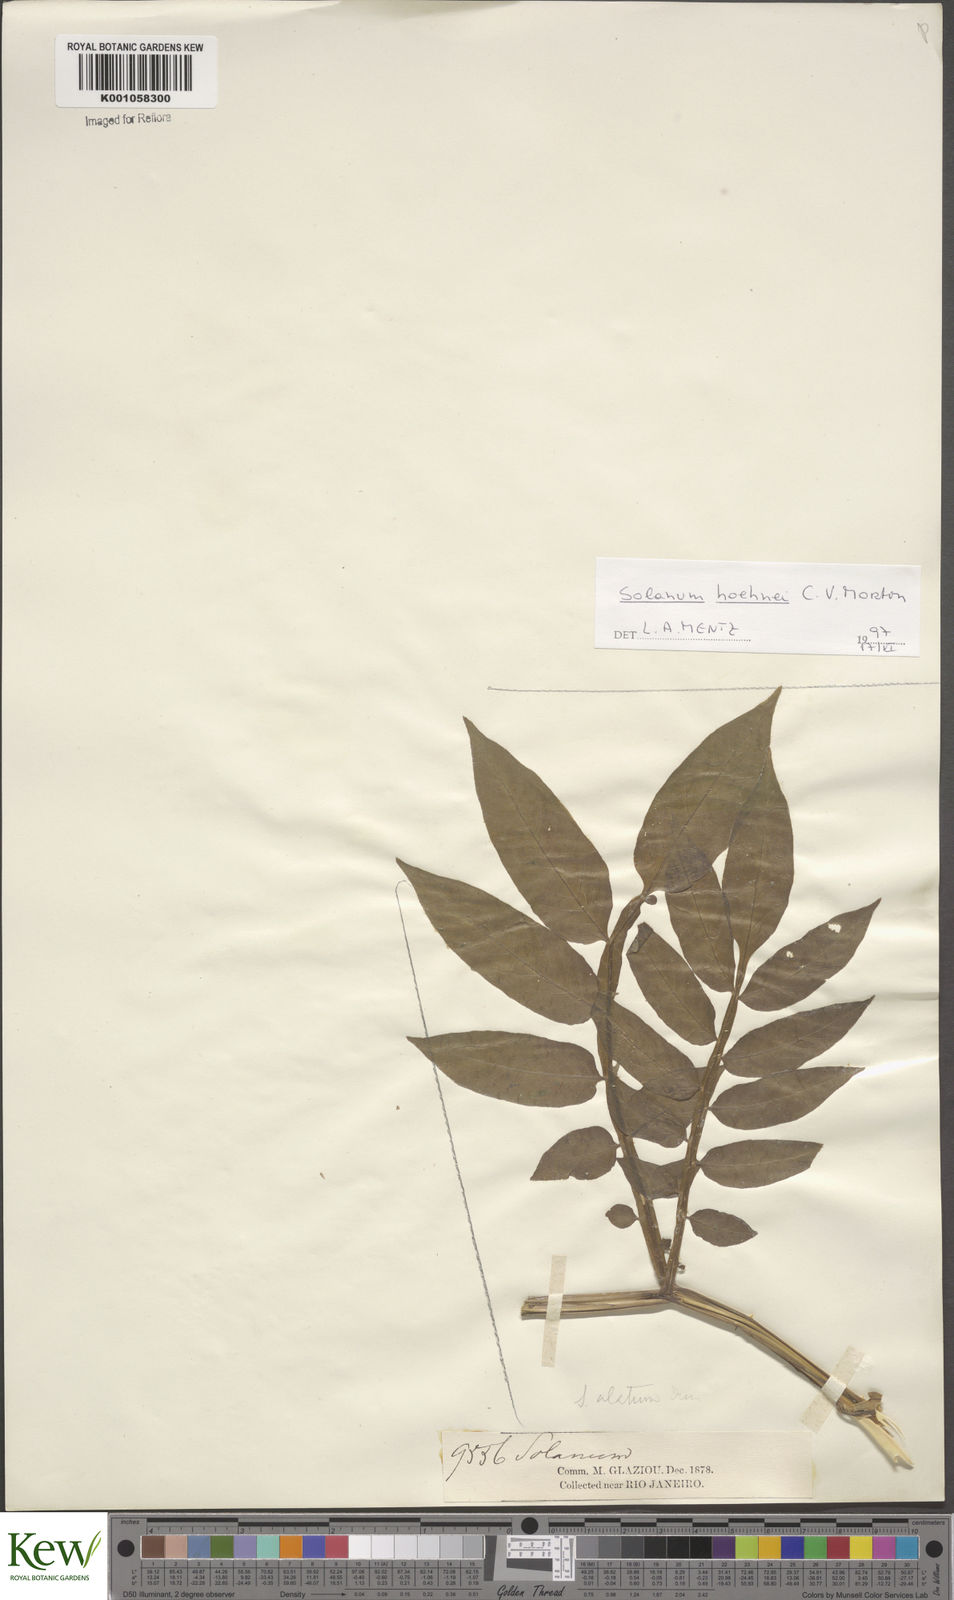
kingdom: Plantae
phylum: Tracheophyta
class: Magnoliopsida
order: Solanales
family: Solanaceae
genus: Solanum
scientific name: Solanum hoehnei
